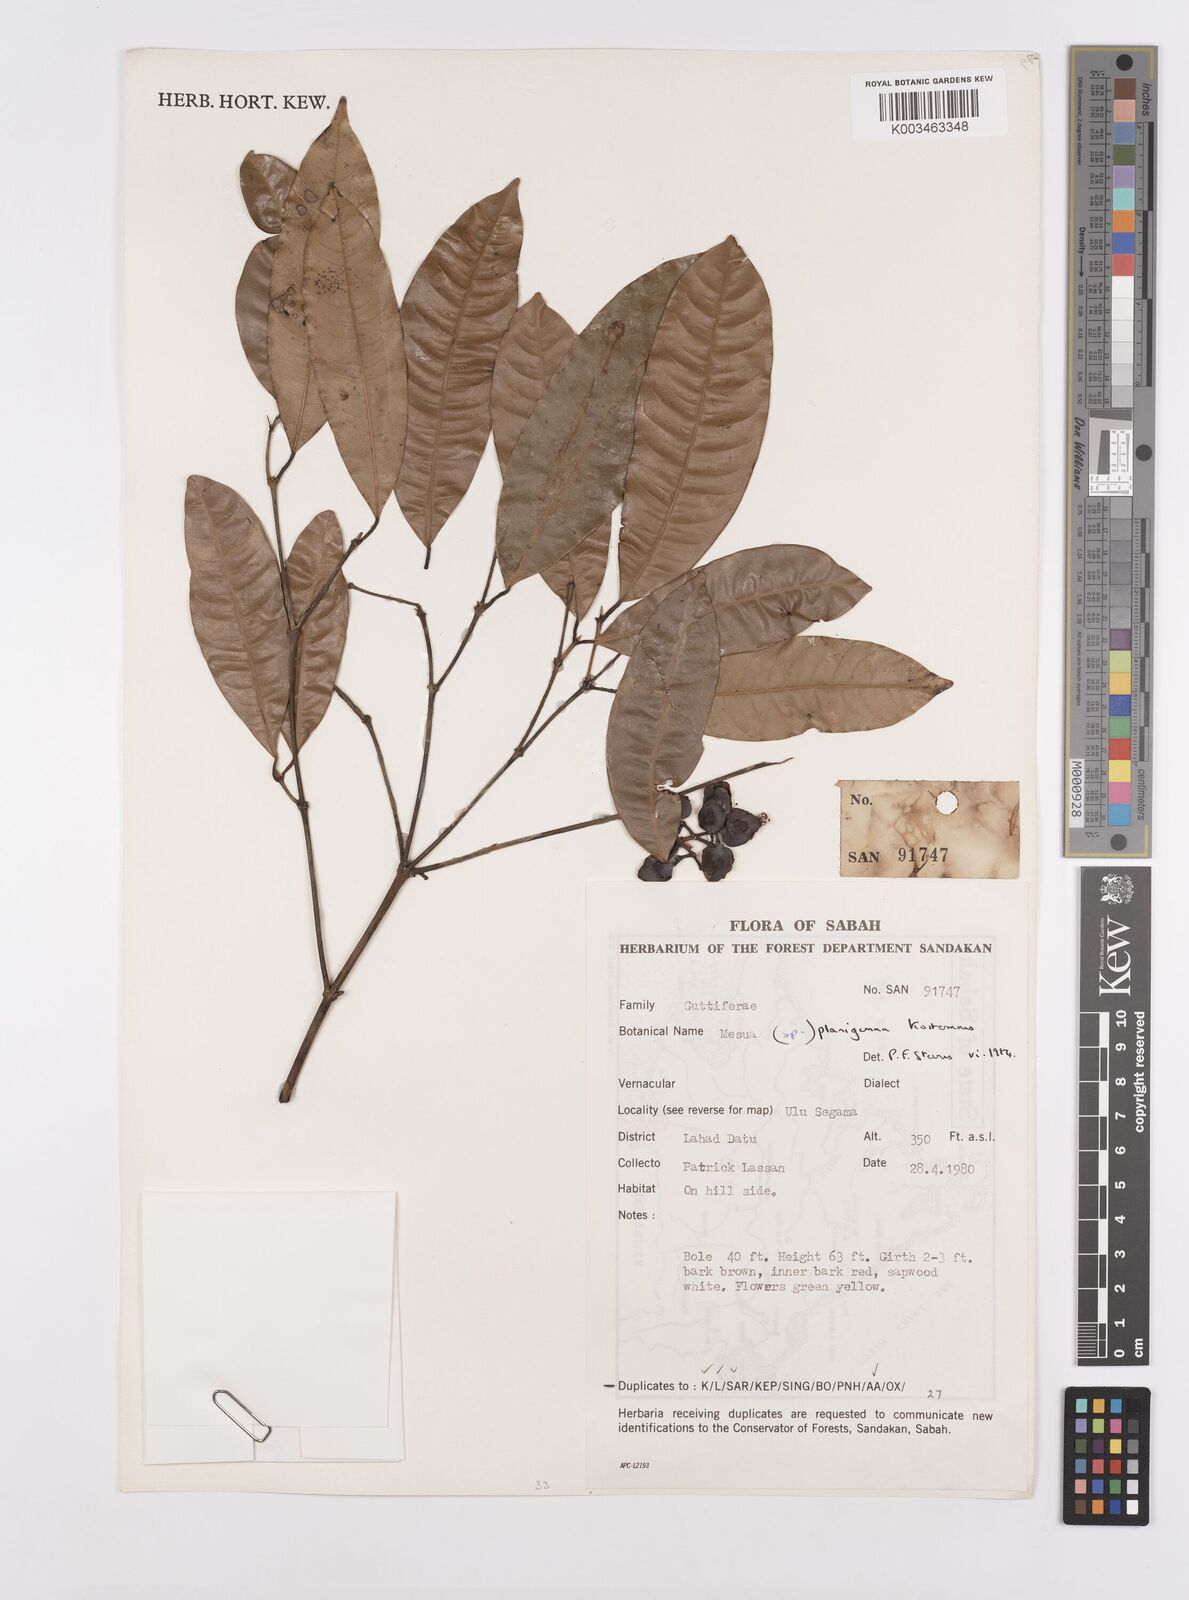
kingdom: Plantae
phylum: Tracheophyta
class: Magnoliopsida
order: Malpighiales
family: Calophyllaceae
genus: Kayea
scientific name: Kayea
